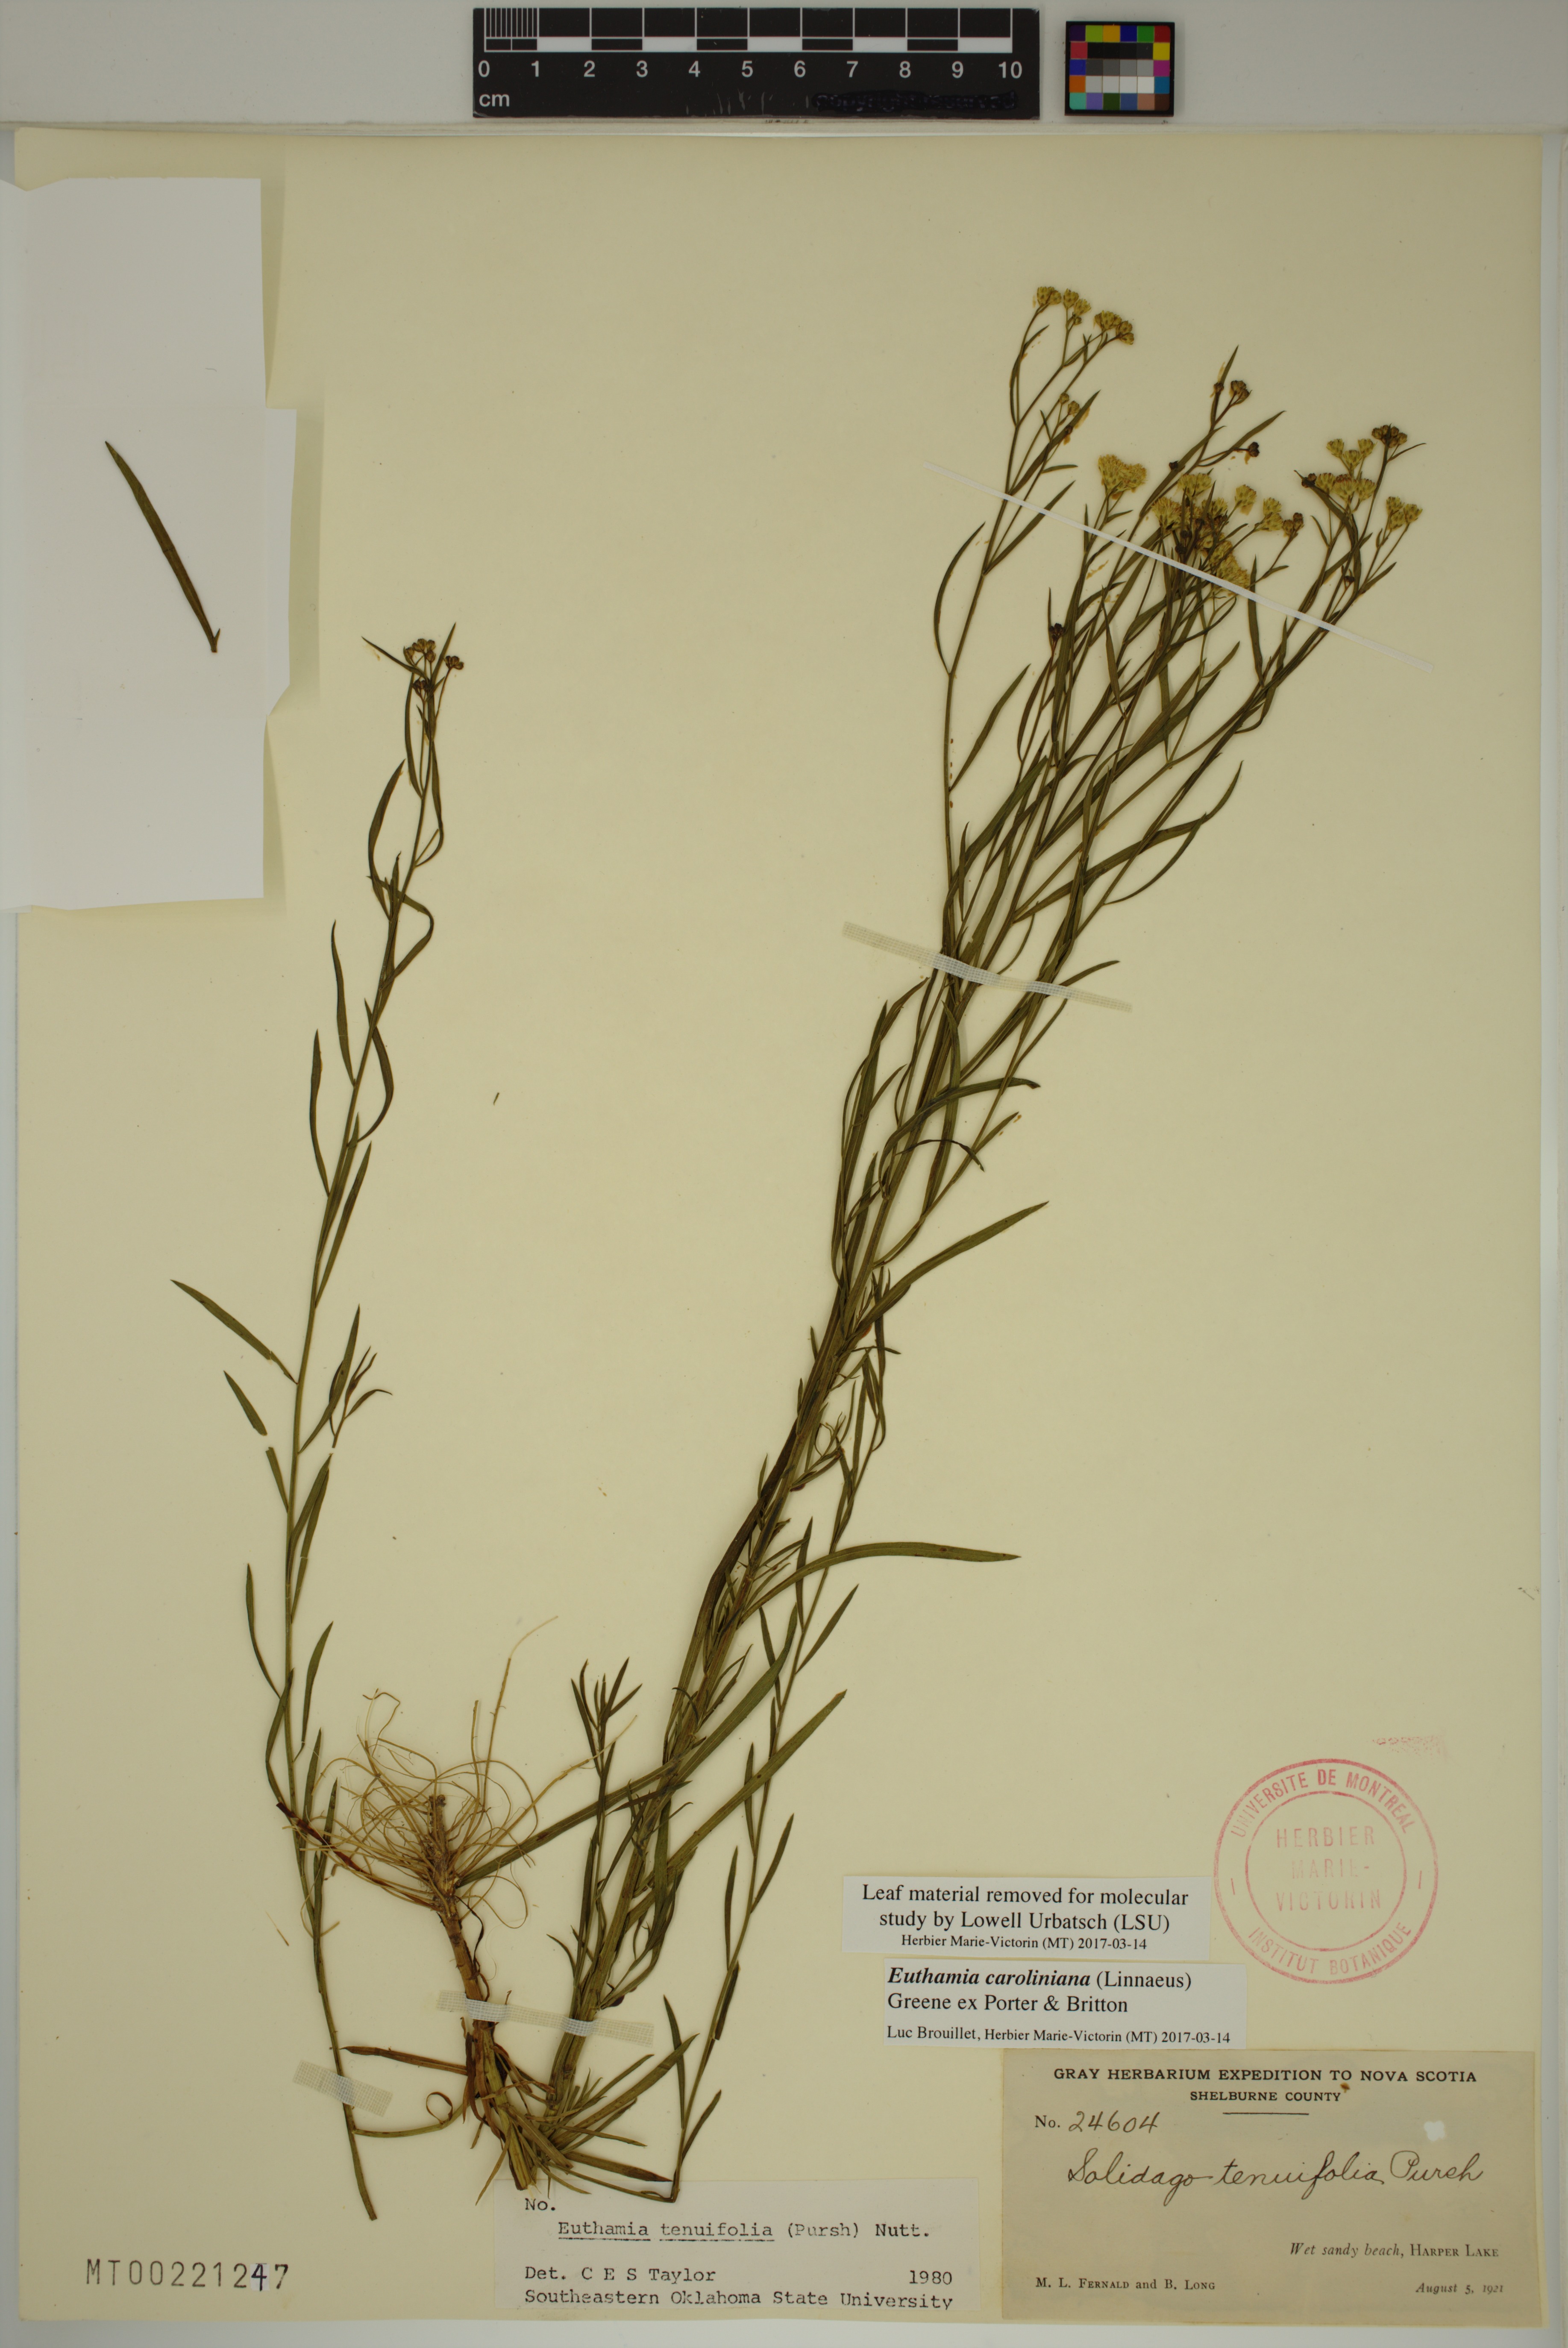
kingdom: Plantae
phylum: Tracheophyta
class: Magnoliopsida
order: Asterales
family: Asteraceae
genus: Euthamia
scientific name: Euthamia galetorum
